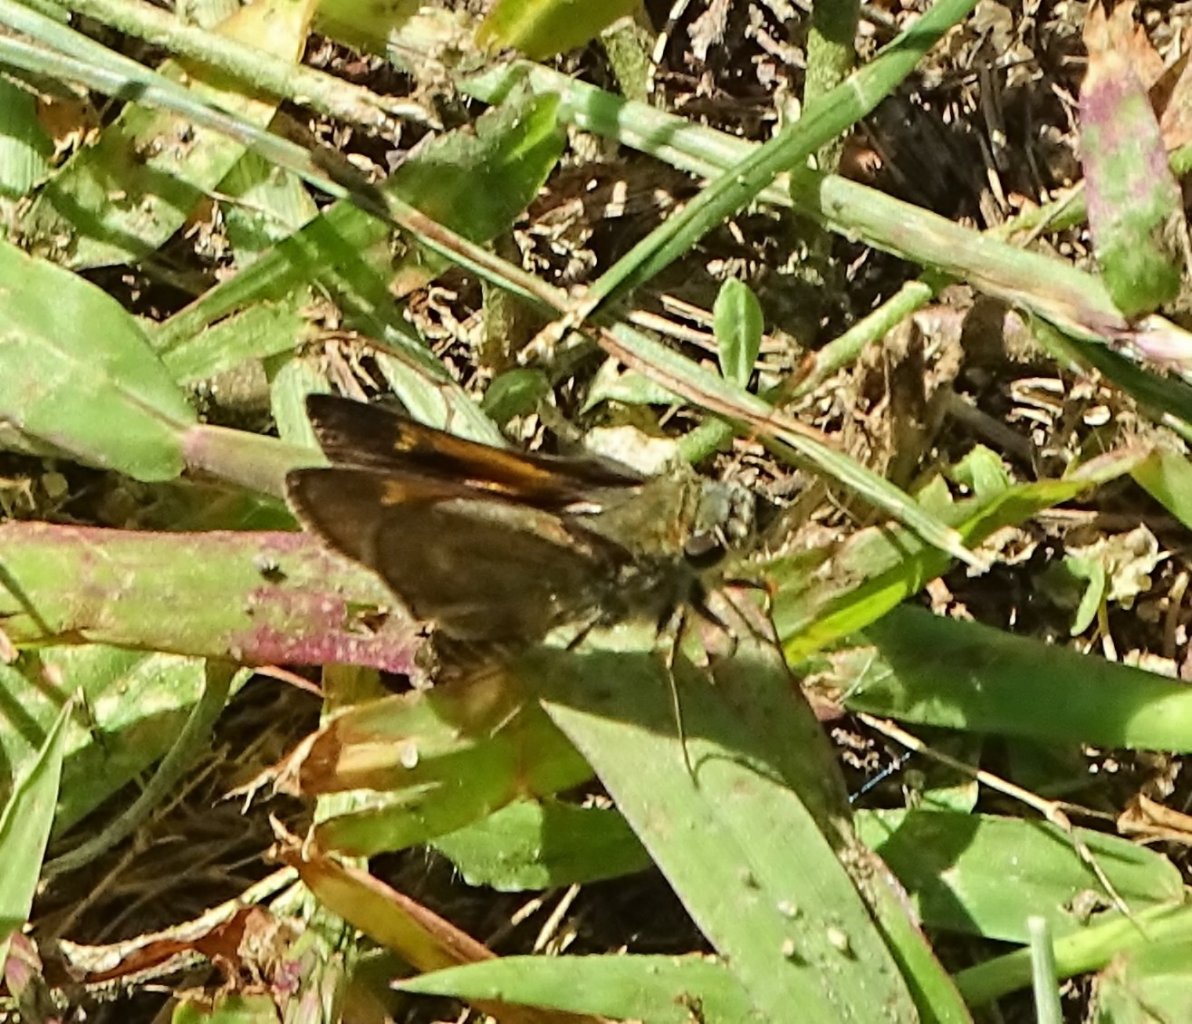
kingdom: Animalia
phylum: Arthropoda
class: Insecta
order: Lepidoptera
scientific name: Lepidoptera
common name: Butterflies
